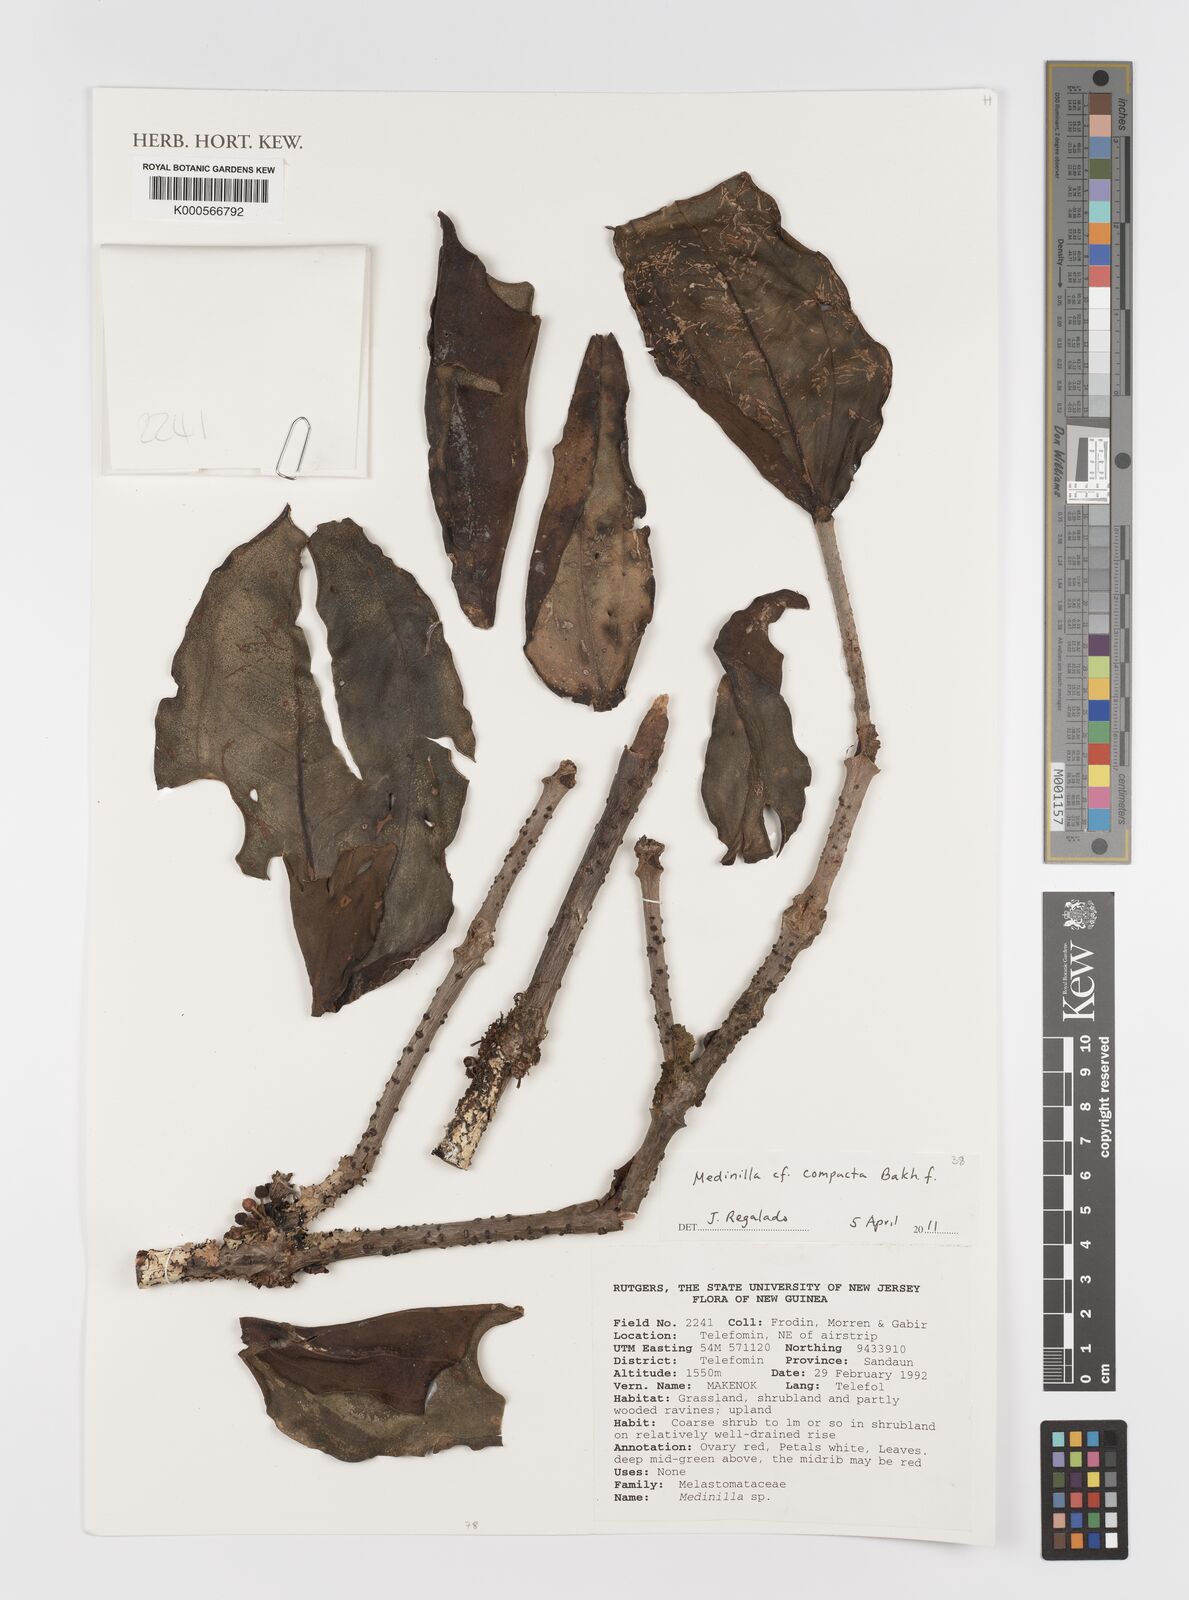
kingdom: Plantae
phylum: Tracheophyta
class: Magnoliopsida
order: Myrtales
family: Melastomataceae
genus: Medinilla
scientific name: Medinilla compacta
